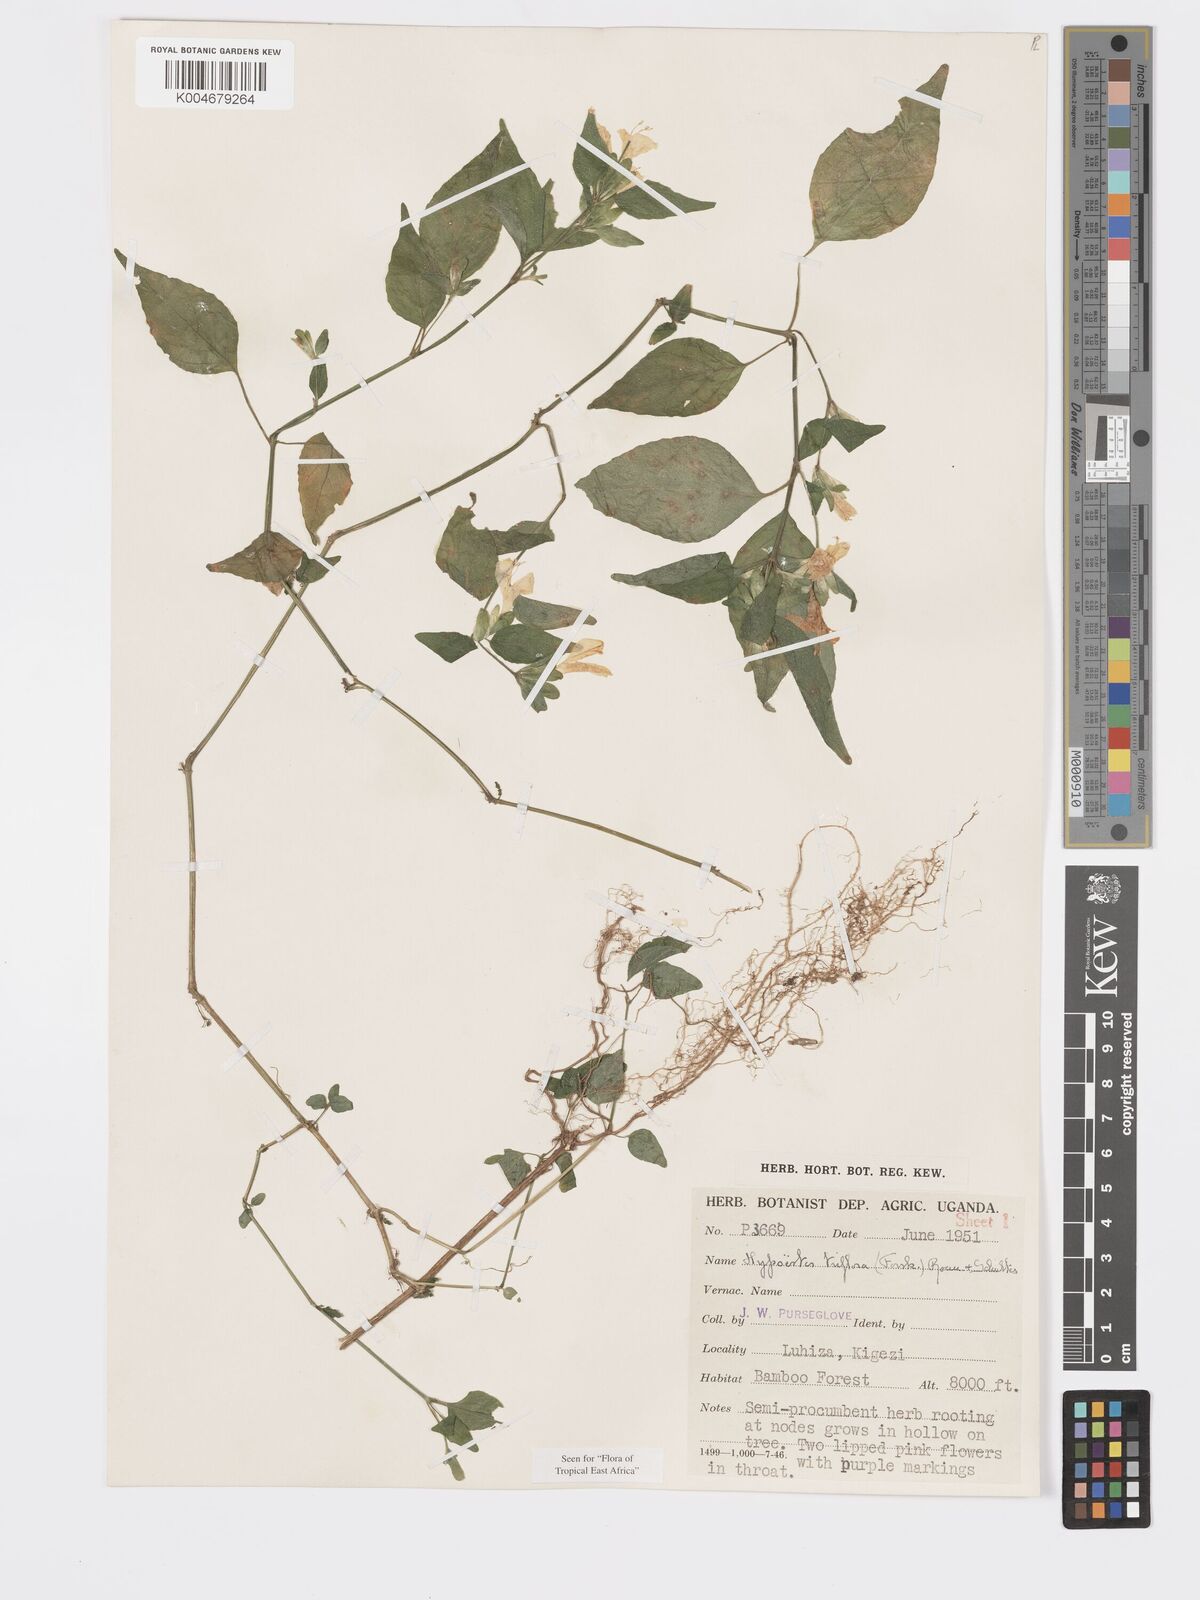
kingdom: Plantae
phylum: Tracheophyta
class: Magnoliopsida
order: Lamiales
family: Acanthaceae
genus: Hypoestes
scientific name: Hypoestes triflora
